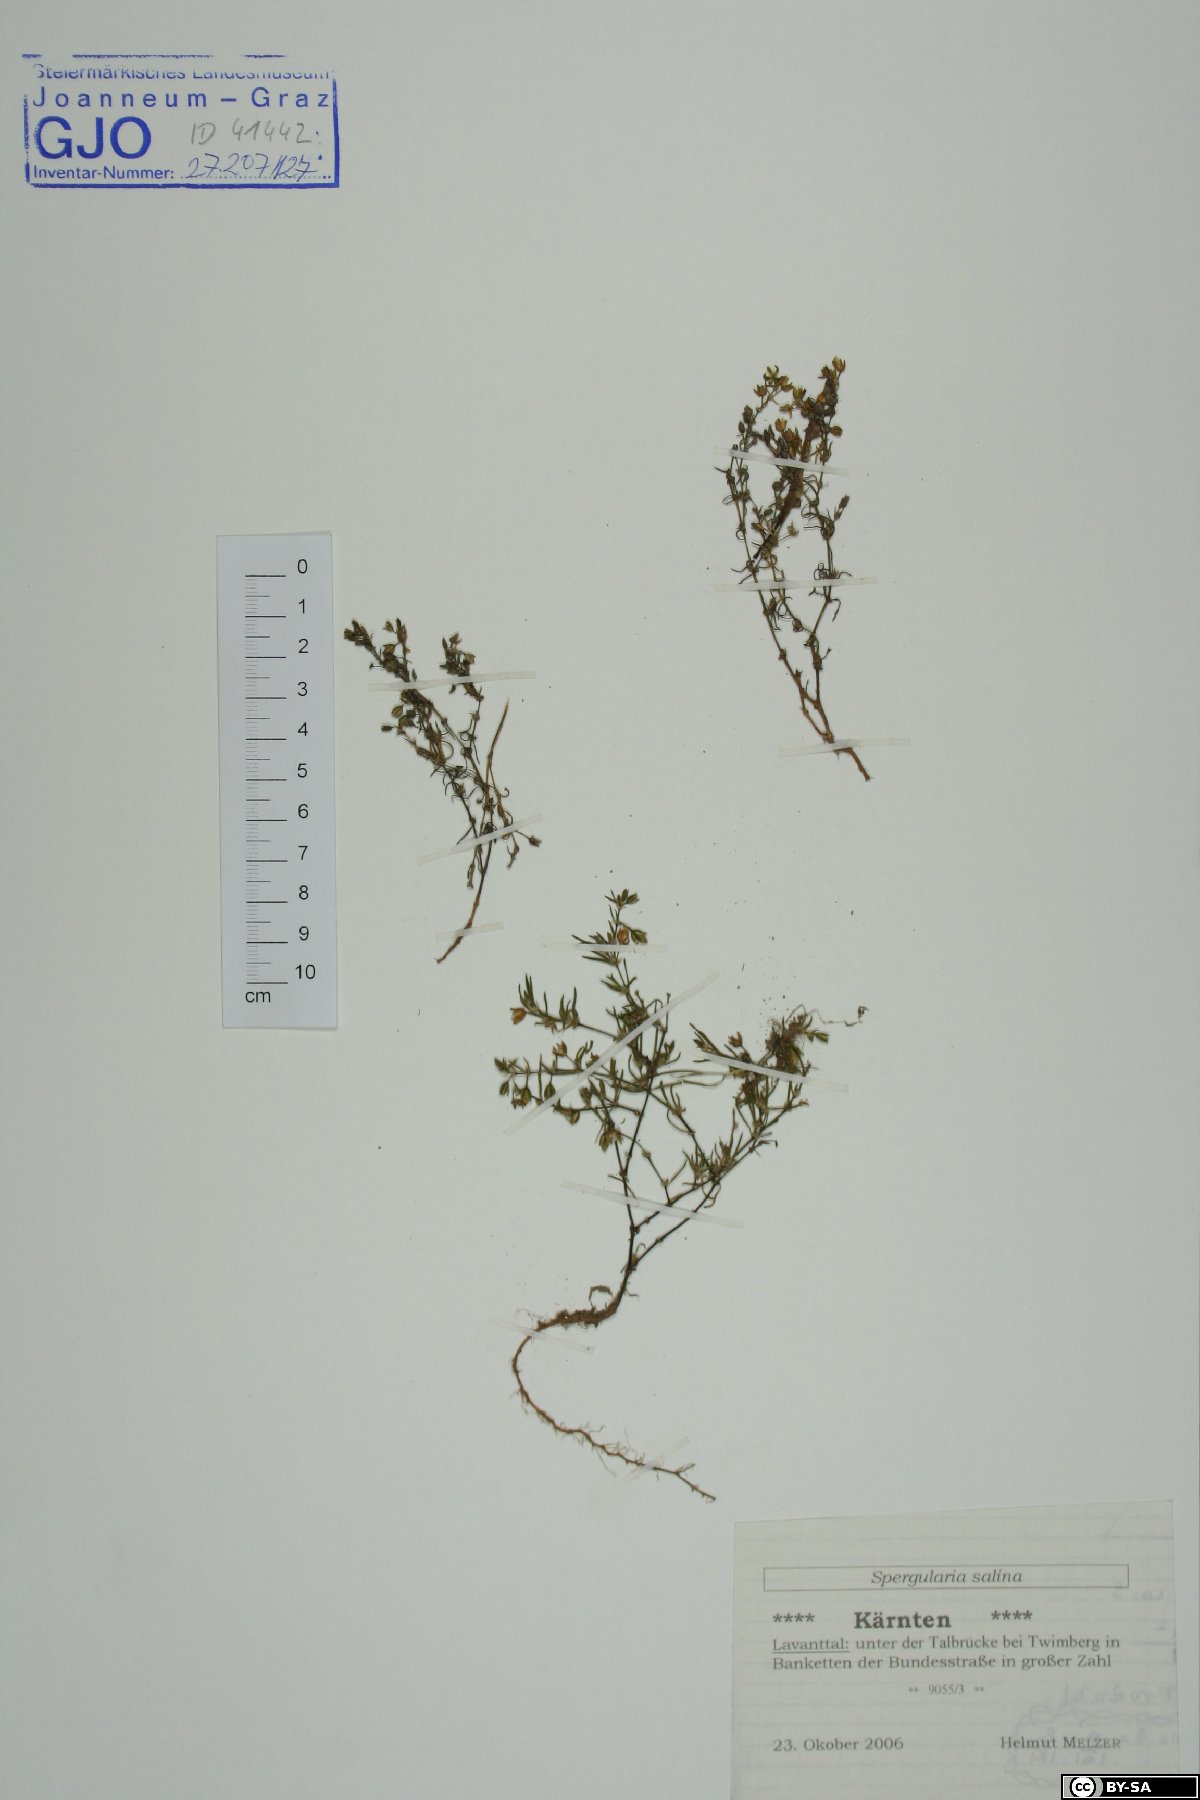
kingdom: Plantae
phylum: Tracheophyta
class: Magnoliopsida
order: Caryophyllales
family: Caryophyllaceae
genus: Spergularia
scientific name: Spergularia marina
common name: Lesser sea-spurrey
